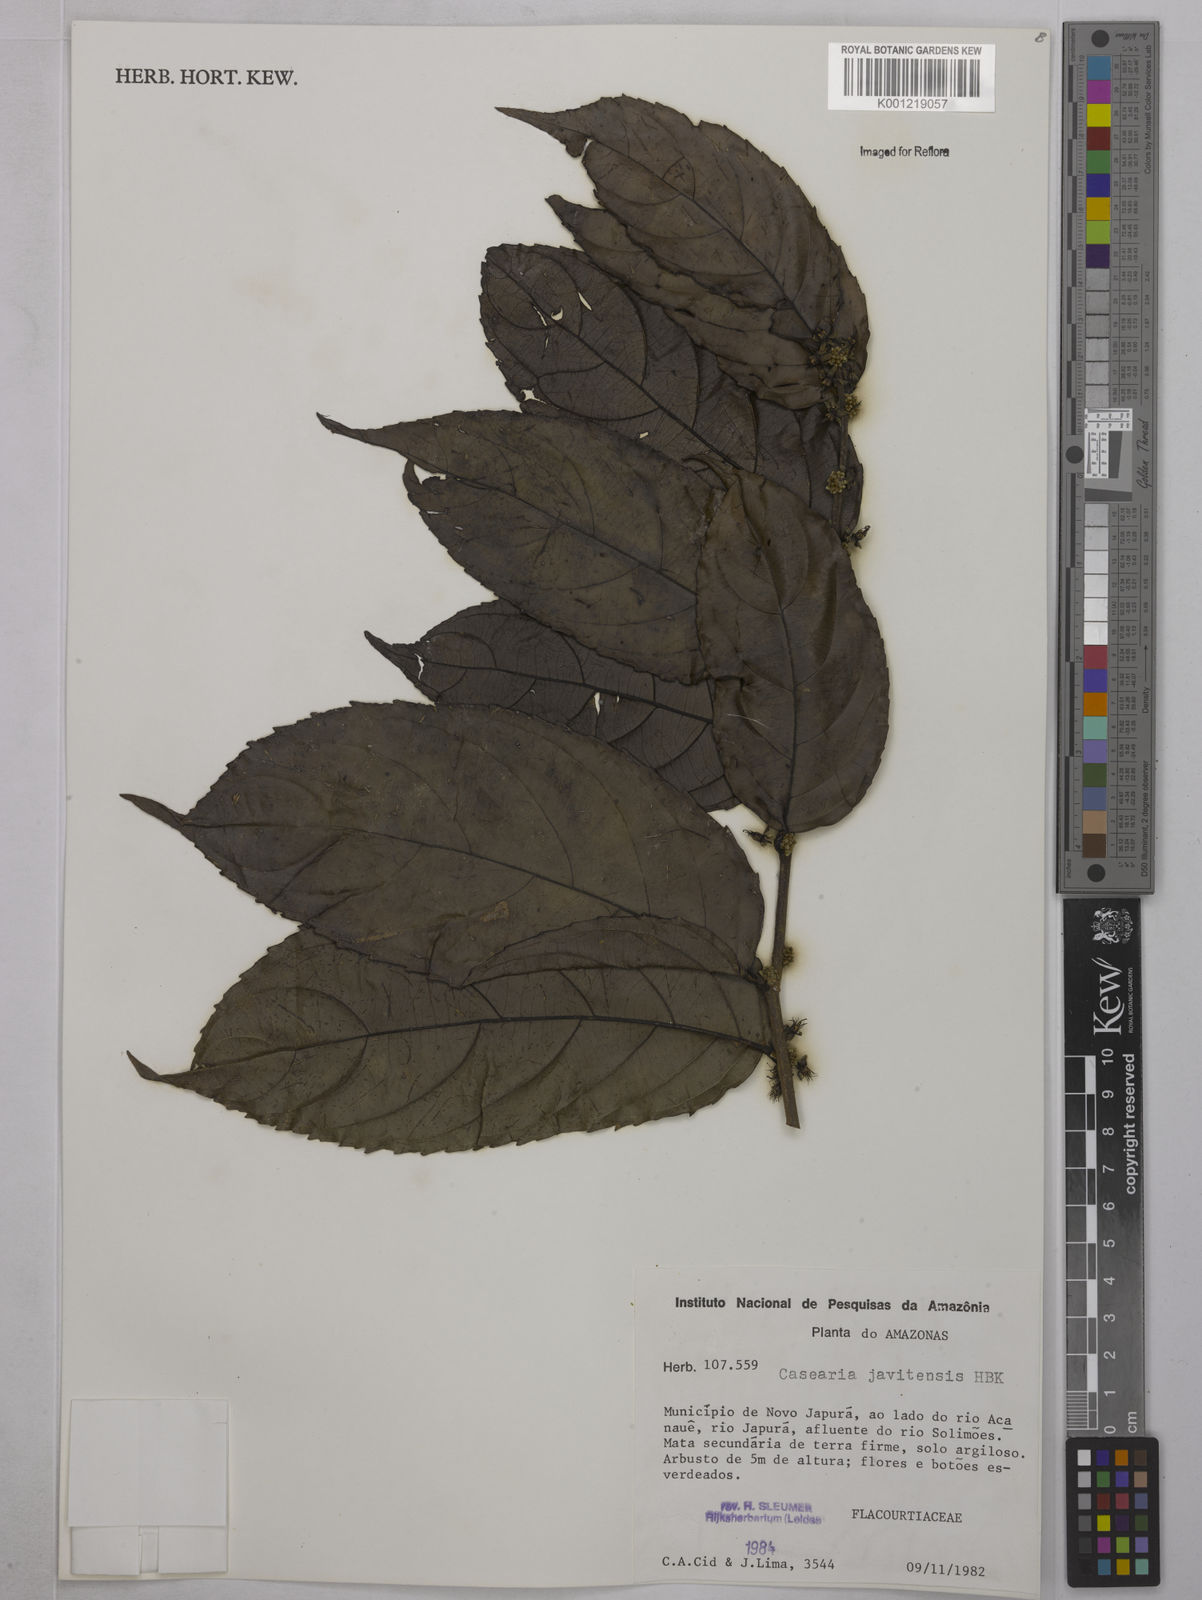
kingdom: Plantae
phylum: Tracheophyta
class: Magnoliopsida
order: Malpighiales
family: Salicaceae
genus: Piparea
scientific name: Piparea multiflora
